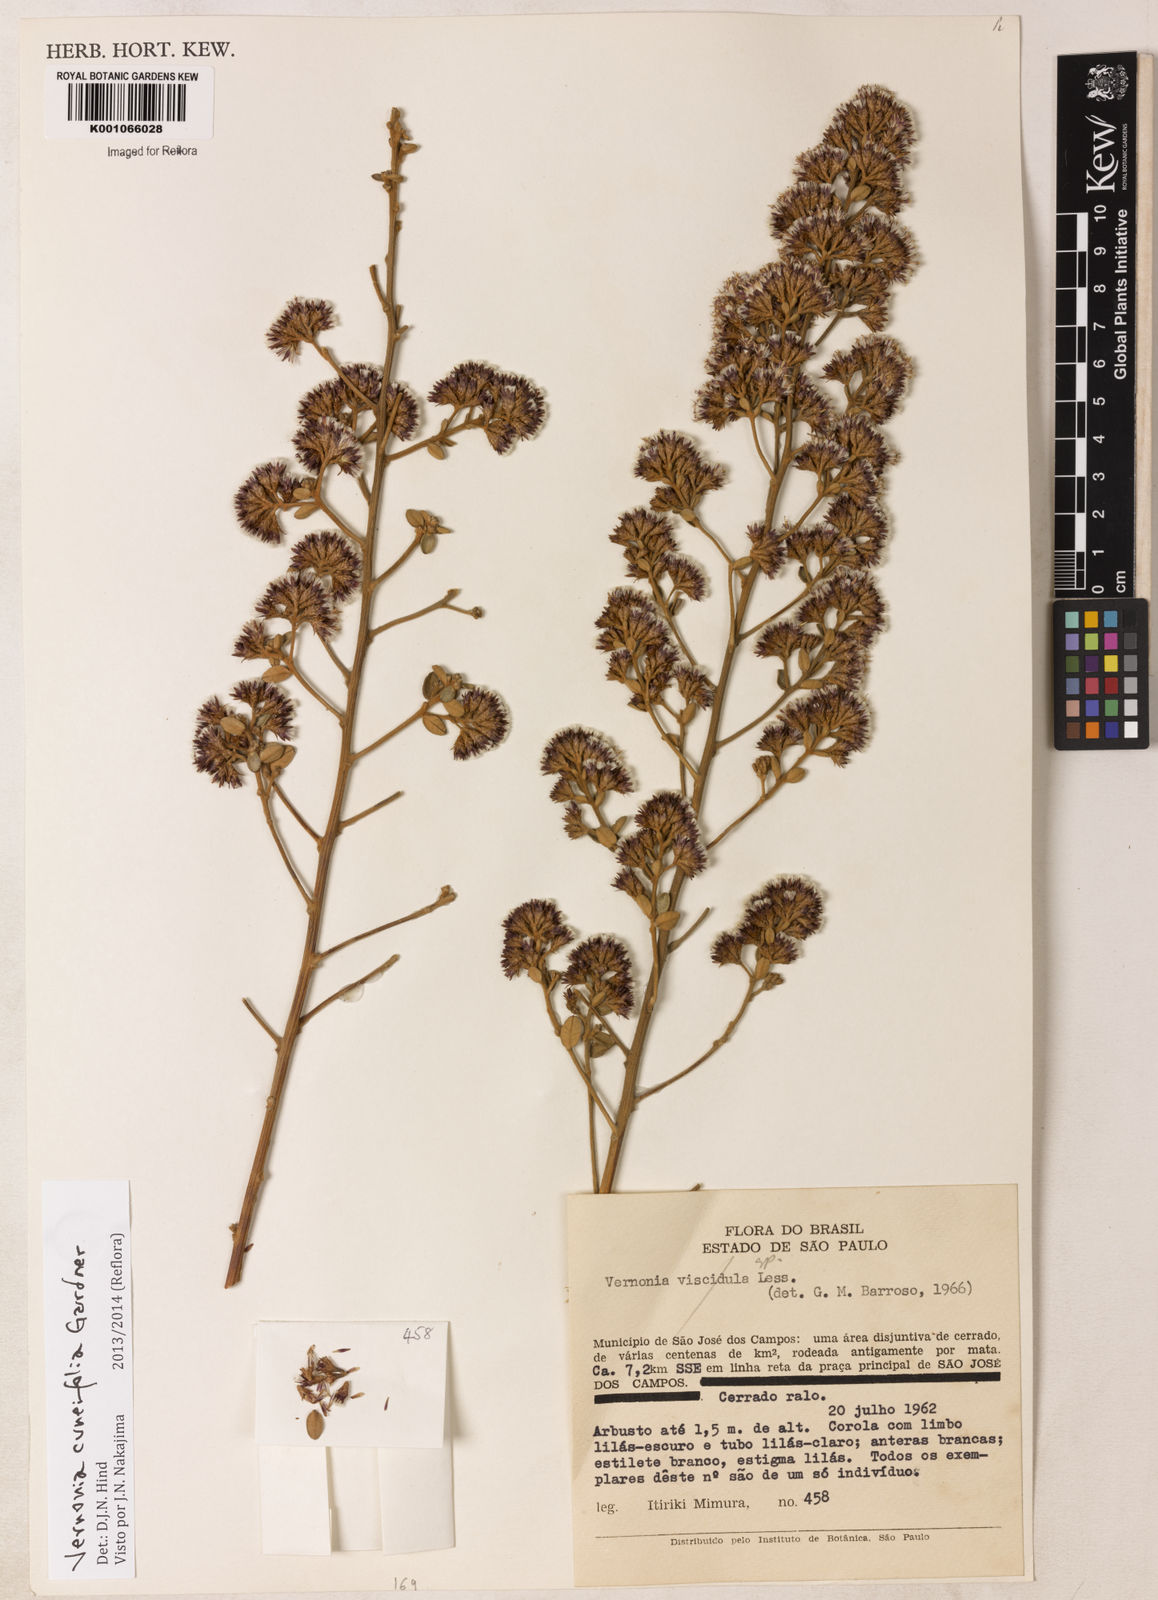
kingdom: Plantae
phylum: Tracheophyta
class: Magnoliopsida
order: Asterales
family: Asteraceae
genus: Vernonanthura
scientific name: Vernonanthura cuneifolia
